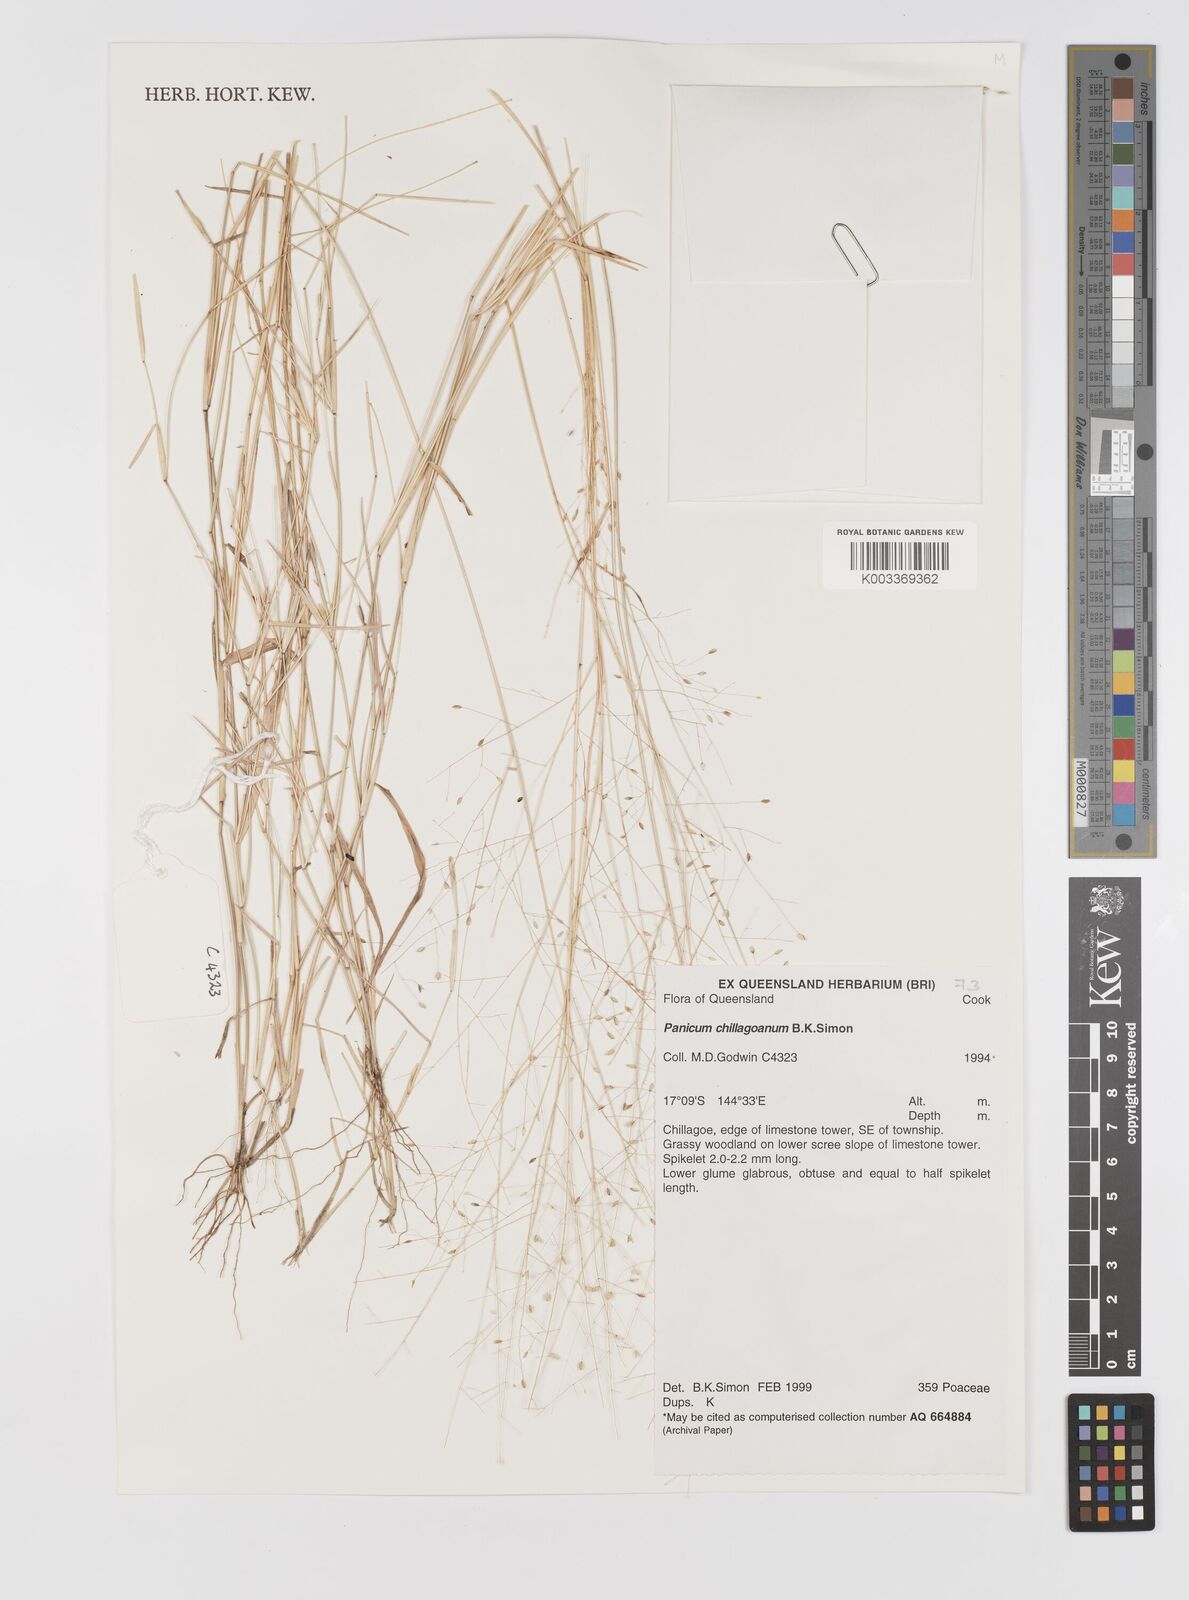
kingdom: Plantae
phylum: Tracheophyta
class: Liliopsida
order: Poales
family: Poaceae
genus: Panicum
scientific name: Panicum seminudum
